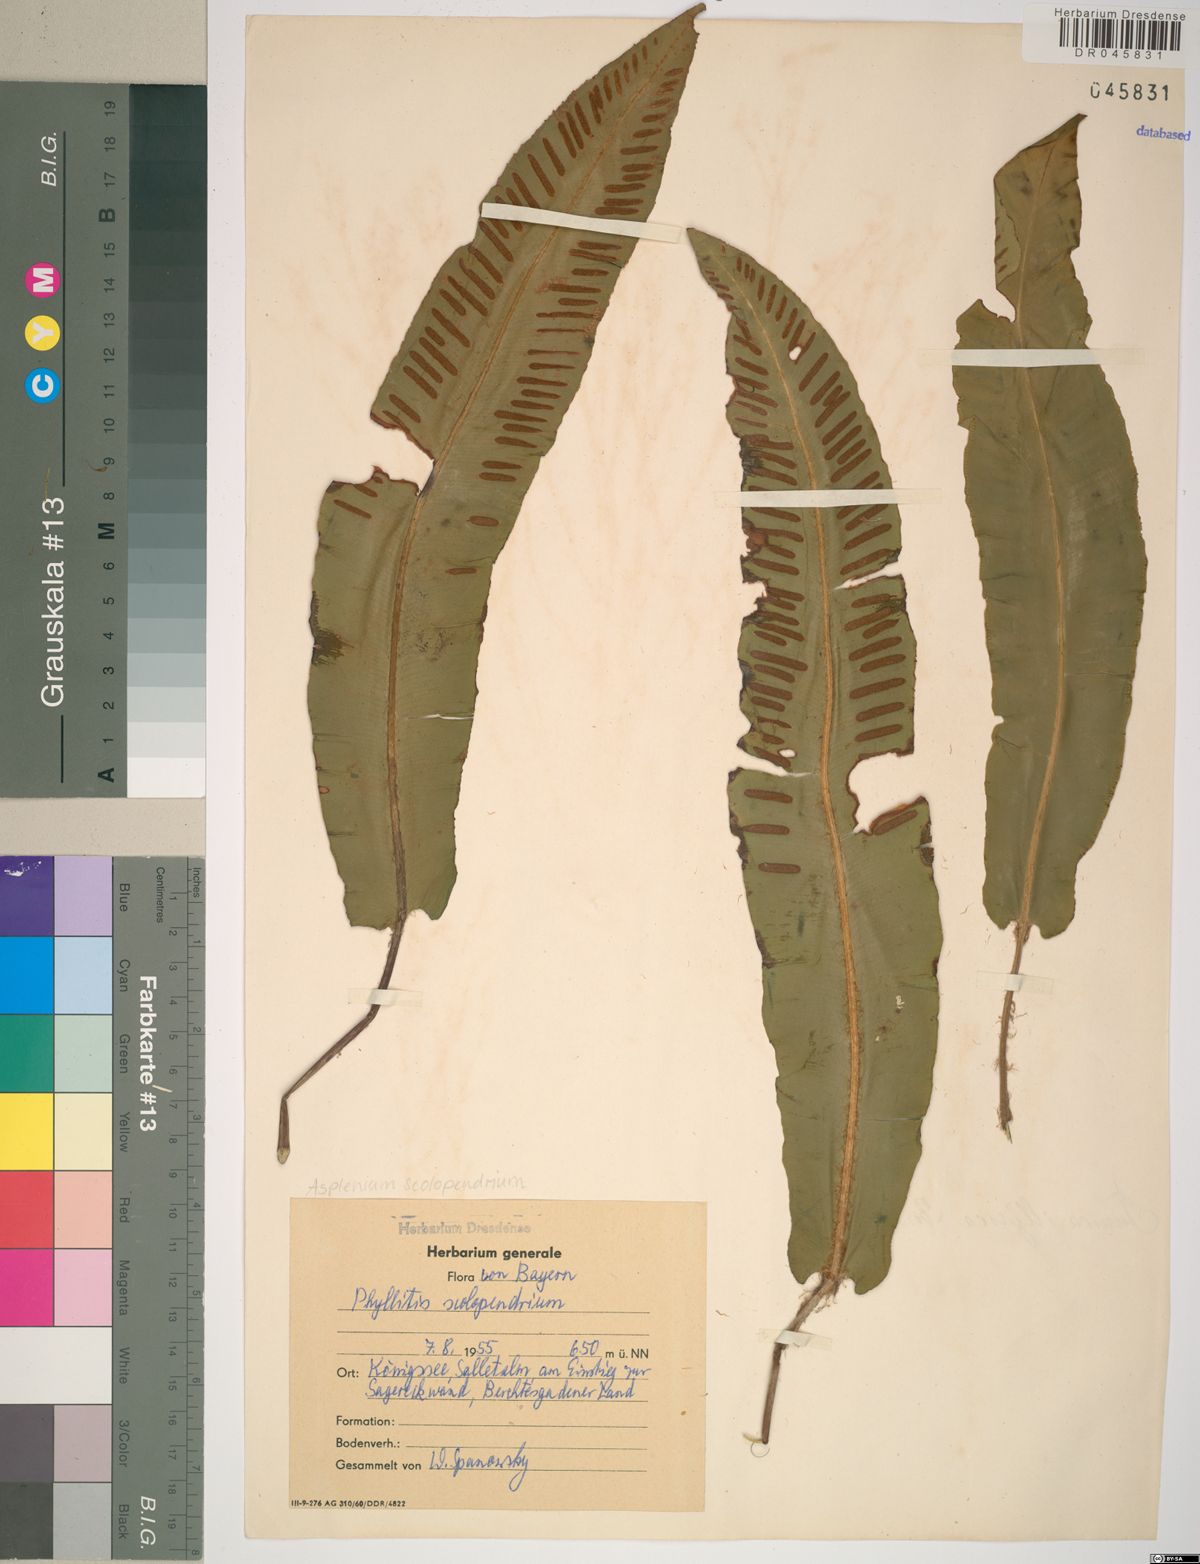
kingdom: Plantae
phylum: Tracheophyta
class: Polypodiopsida
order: Polypodiales
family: Aspleniaceae
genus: Asplenium
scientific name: Asplenium scolopendrium
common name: Hart's-tongue fern
